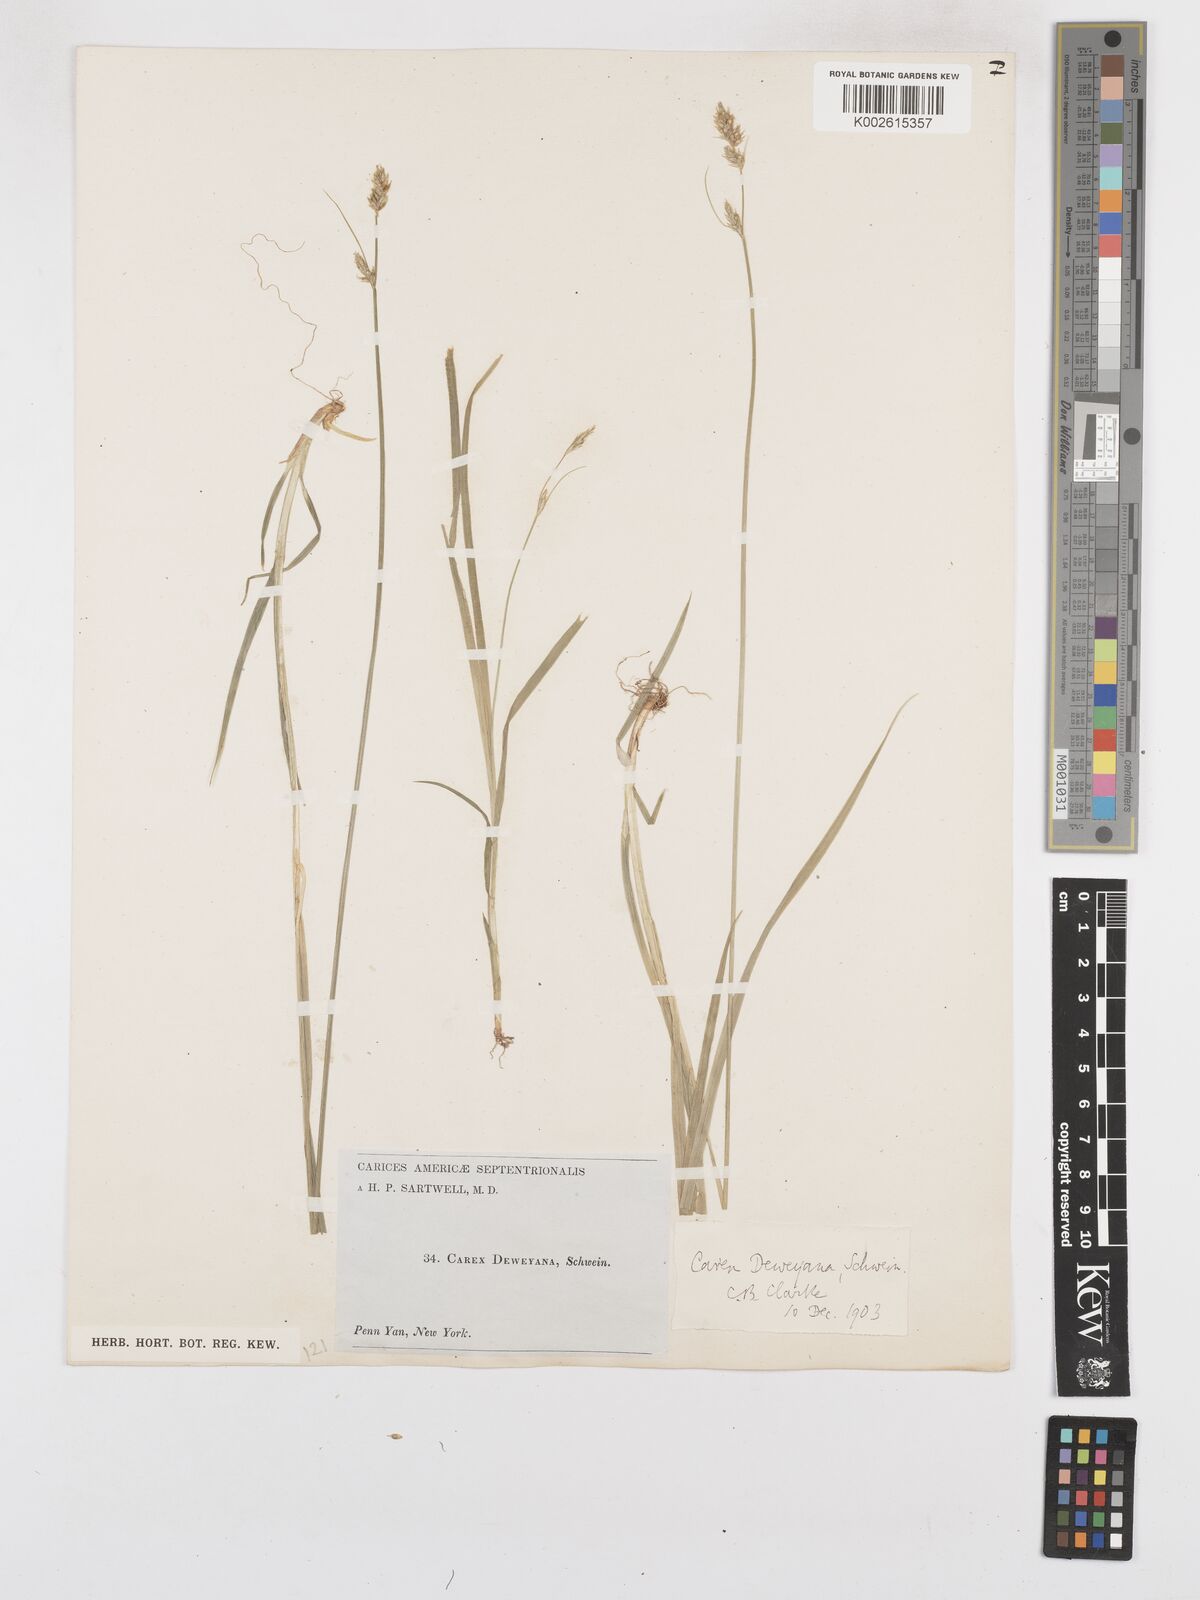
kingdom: Plantae
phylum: Tracheophyta
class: Liliopsida
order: Poales
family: Cyperaceae
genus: Carex
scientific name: Carex deweyana
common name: Dewey's sedge
